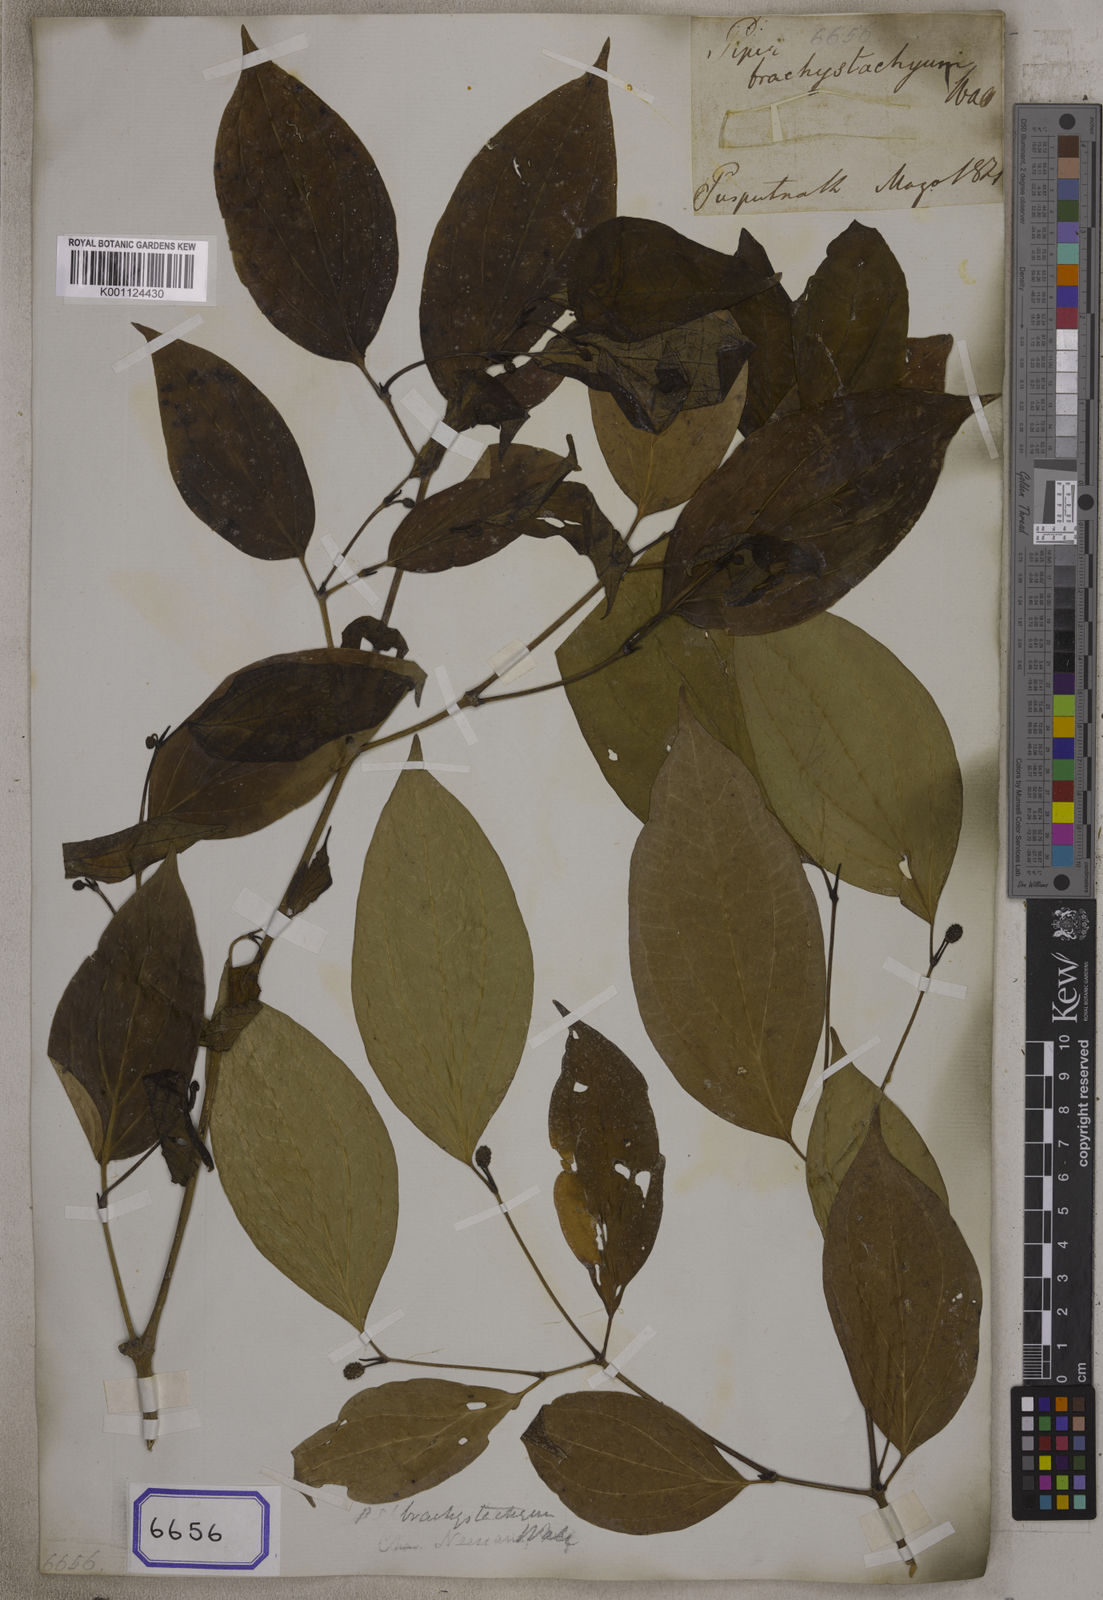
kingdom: Plantae
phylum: Tracheophyta
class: Magnoliopsida
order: Piperales
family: Piperaceae
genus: Piper
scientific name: Piper
